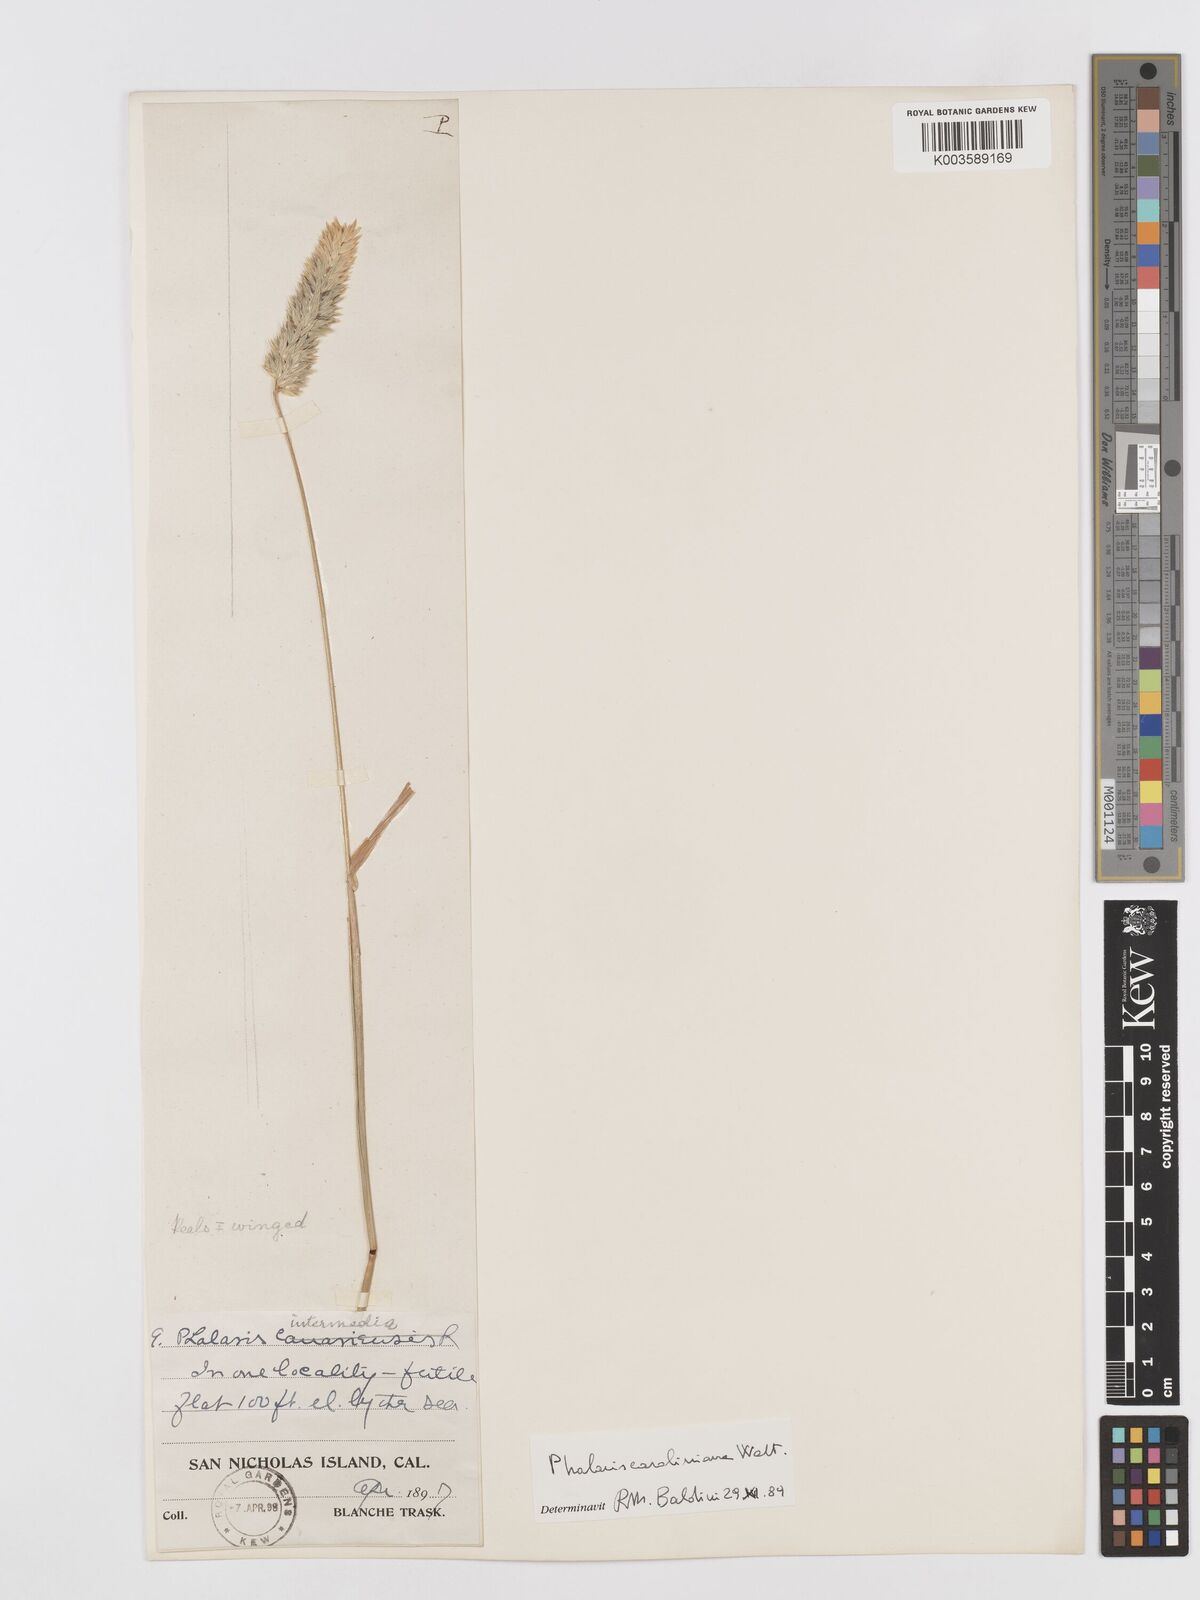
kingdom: Plantae
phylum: Tracheophyta
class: Liliopsida
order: Poales
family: Poaceae
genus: Phalaris
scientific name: Phalaris caroliniana
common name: May grass
